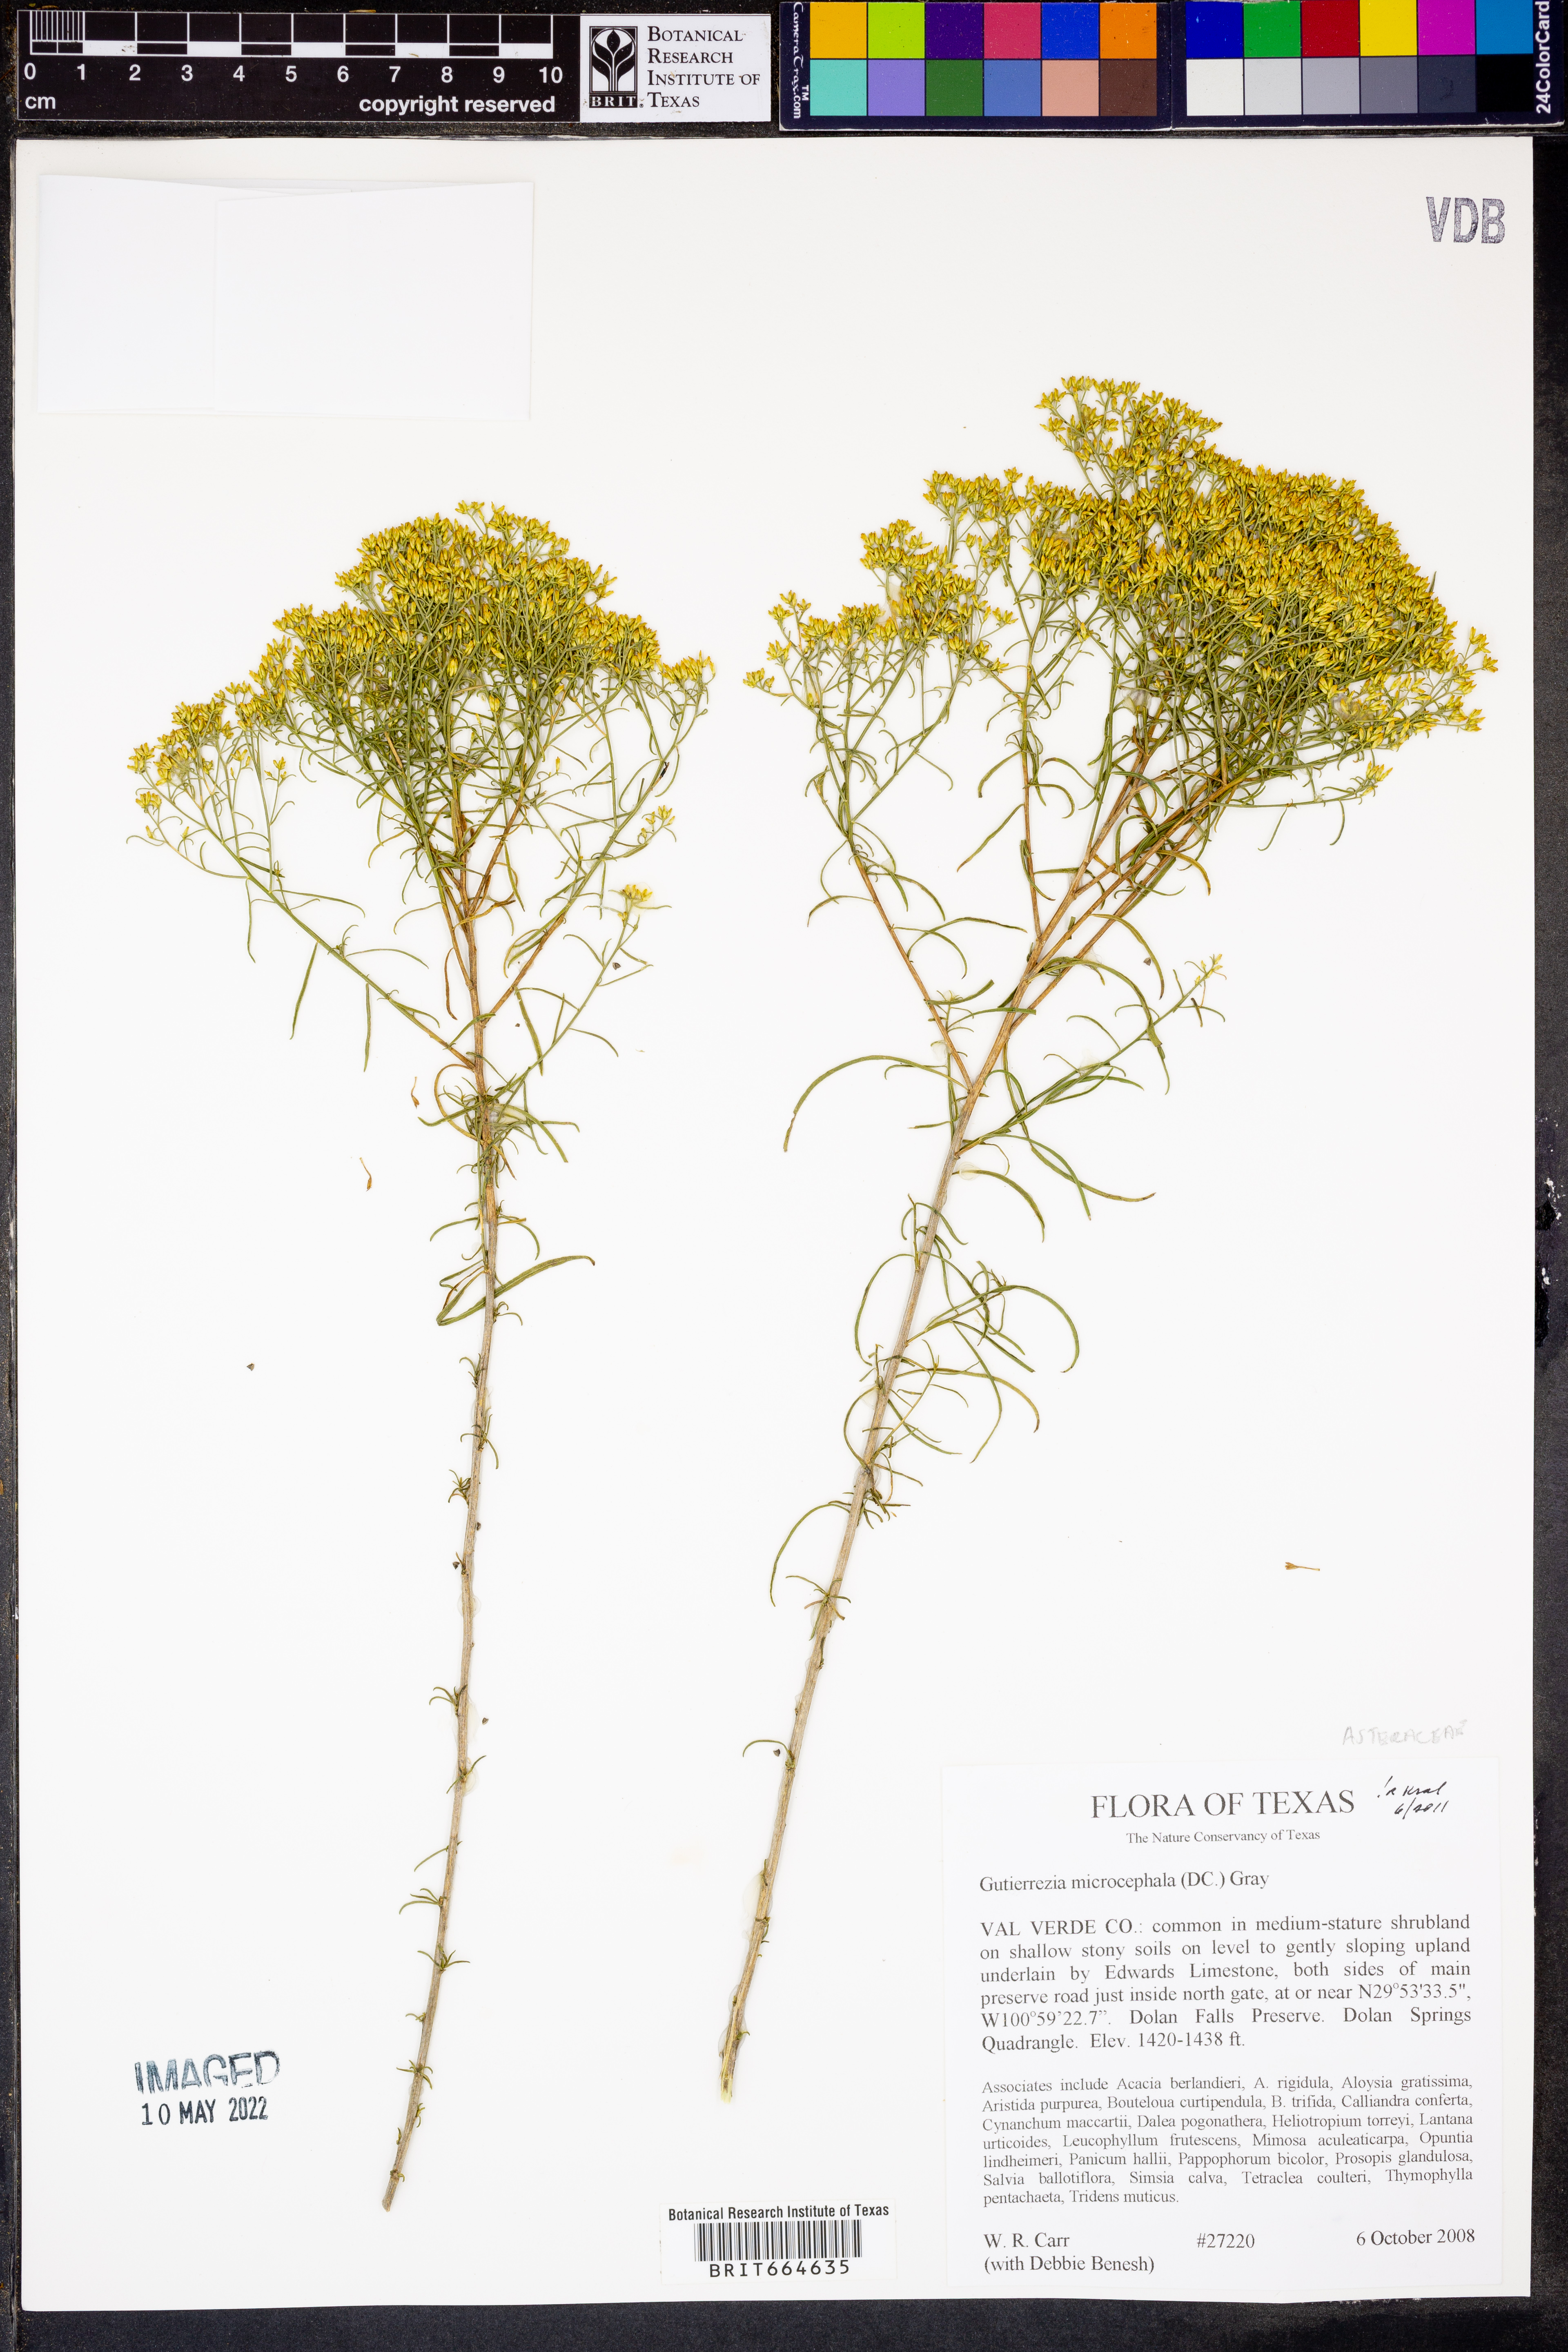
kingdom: Plantae
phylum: Tracheophyta
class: Magnoliopsida
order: Asterales
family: Asteraceae
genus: Gutierrezia
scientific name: Gutierrezia microcephala
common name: Thread snakeweed
